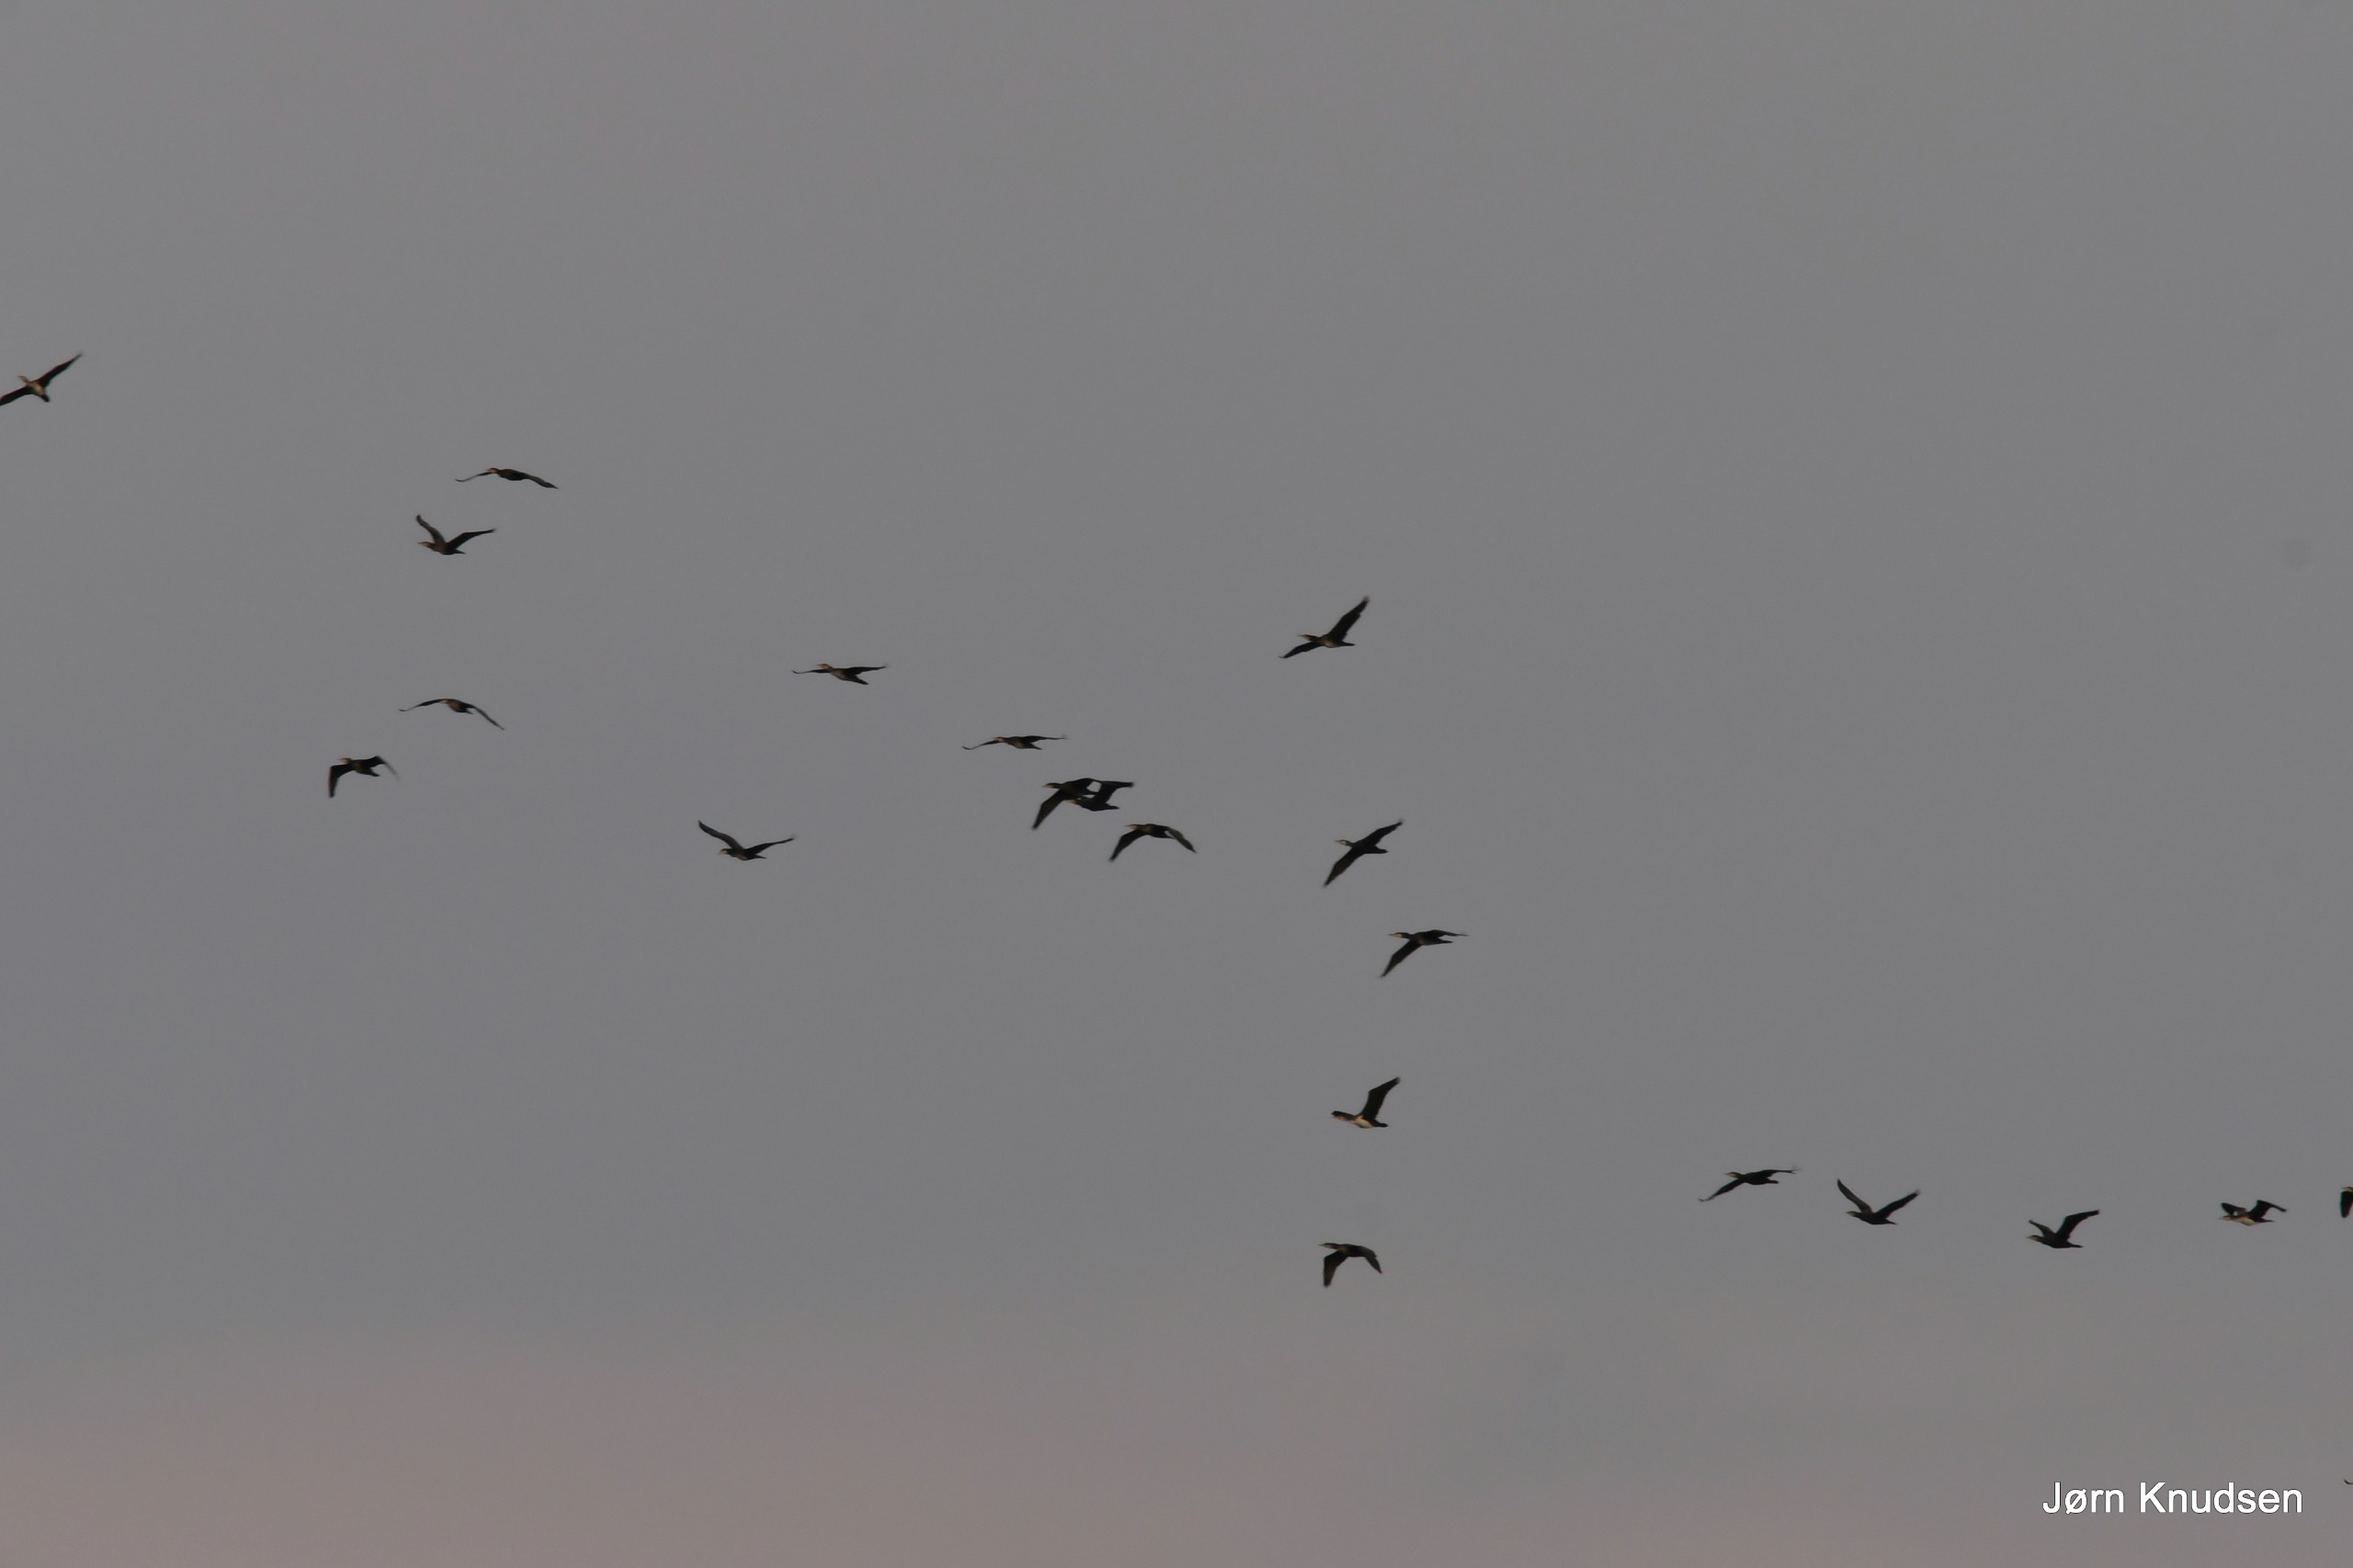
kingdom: Animalia
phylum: Chordata
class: Aves
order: Suliformes
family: Phalacrocoracidae
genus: Phalacrocorax
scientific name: Phalacrocorax carbo
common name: Skarv
